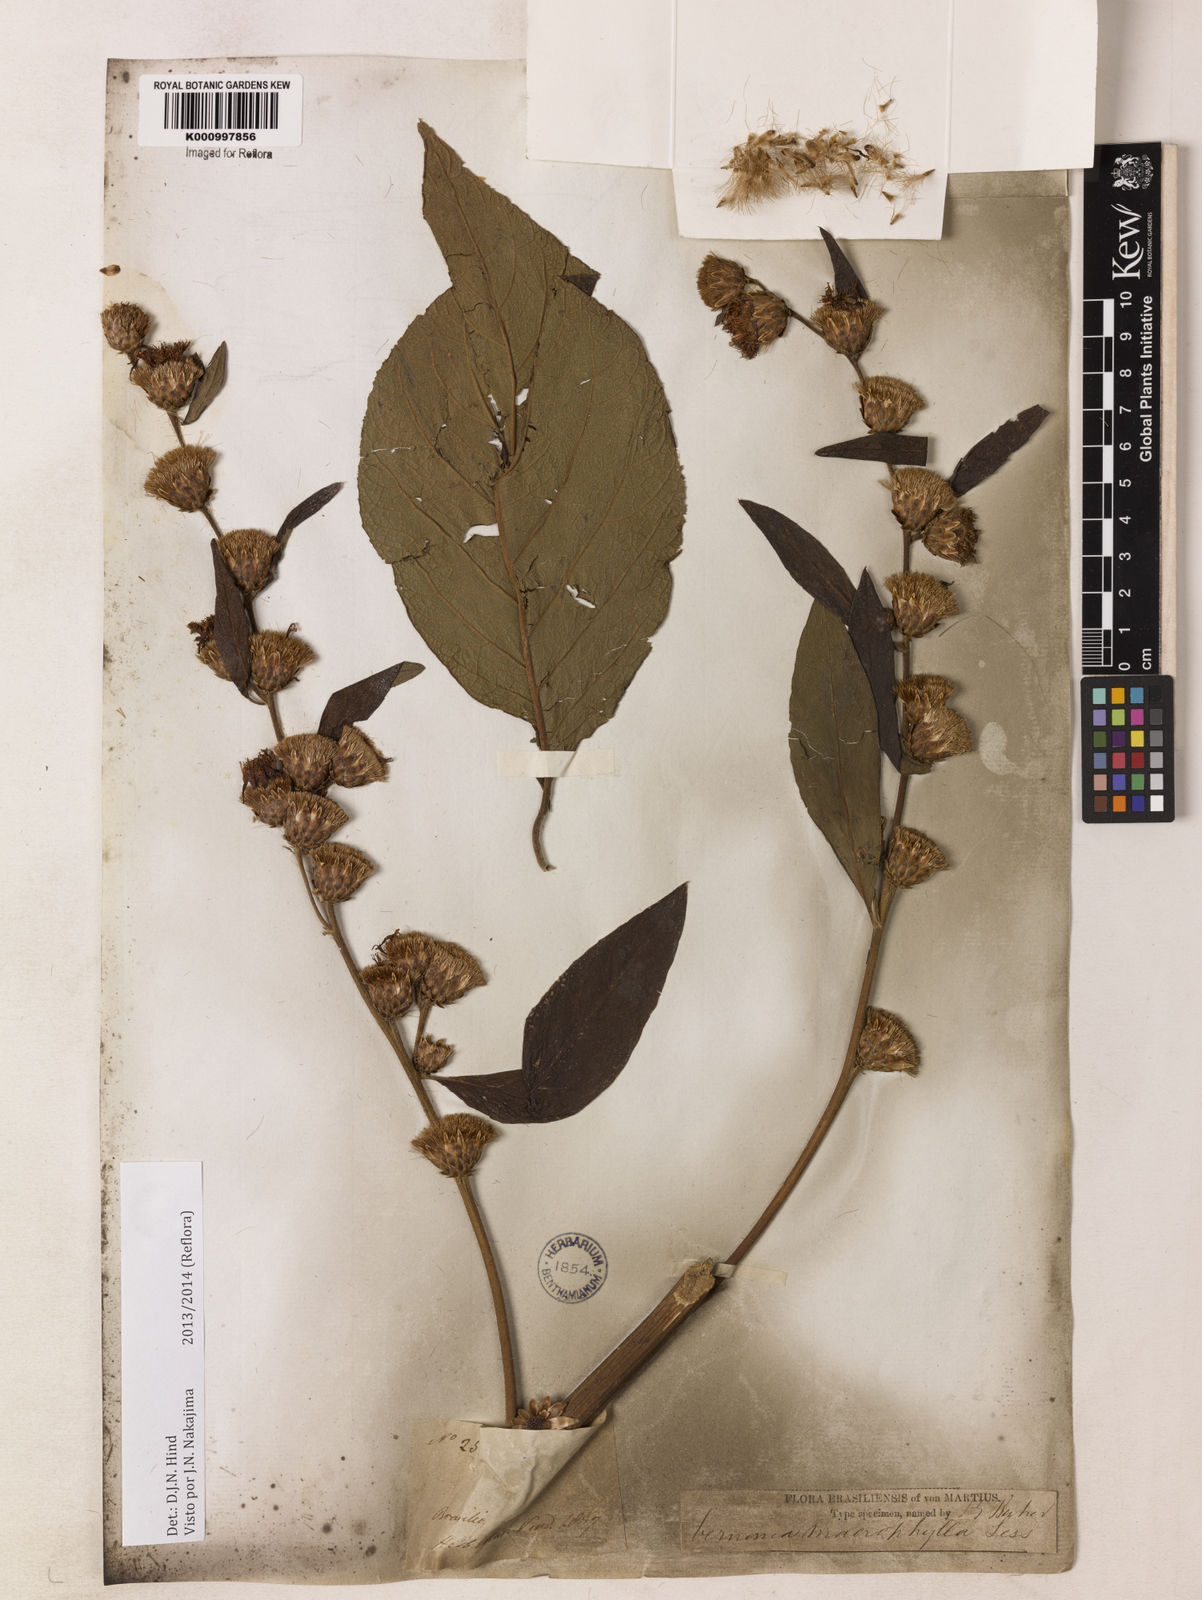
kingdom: Plantae
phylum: Tracheophyta
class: Magnoliopsida
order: Asterales
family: Asteraceae
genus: Lessingianthus
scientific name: Lessingianthus macrophyllus
